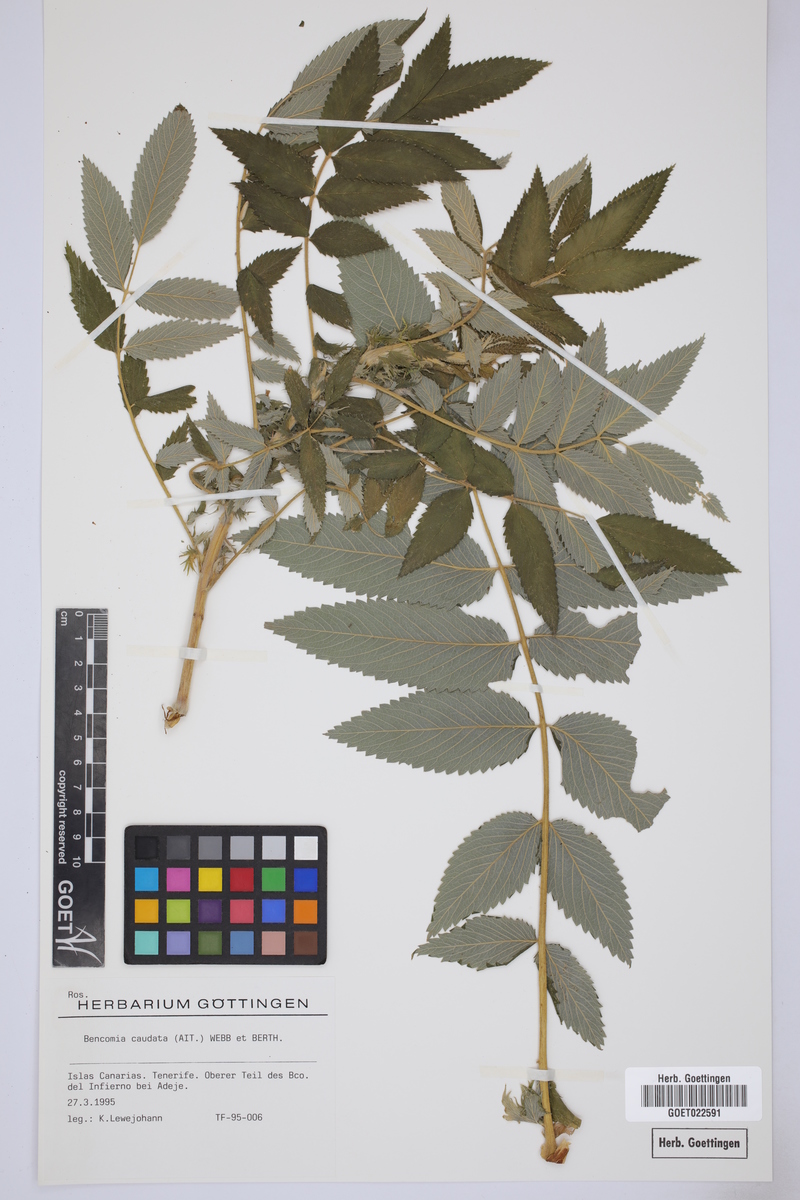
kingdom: Plantae
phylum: Tracheophyta
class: Magnoliopsida
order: Rosales
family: Rosaceae
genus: Bencomia
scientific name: Bencomia caudata
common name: Bencomia
